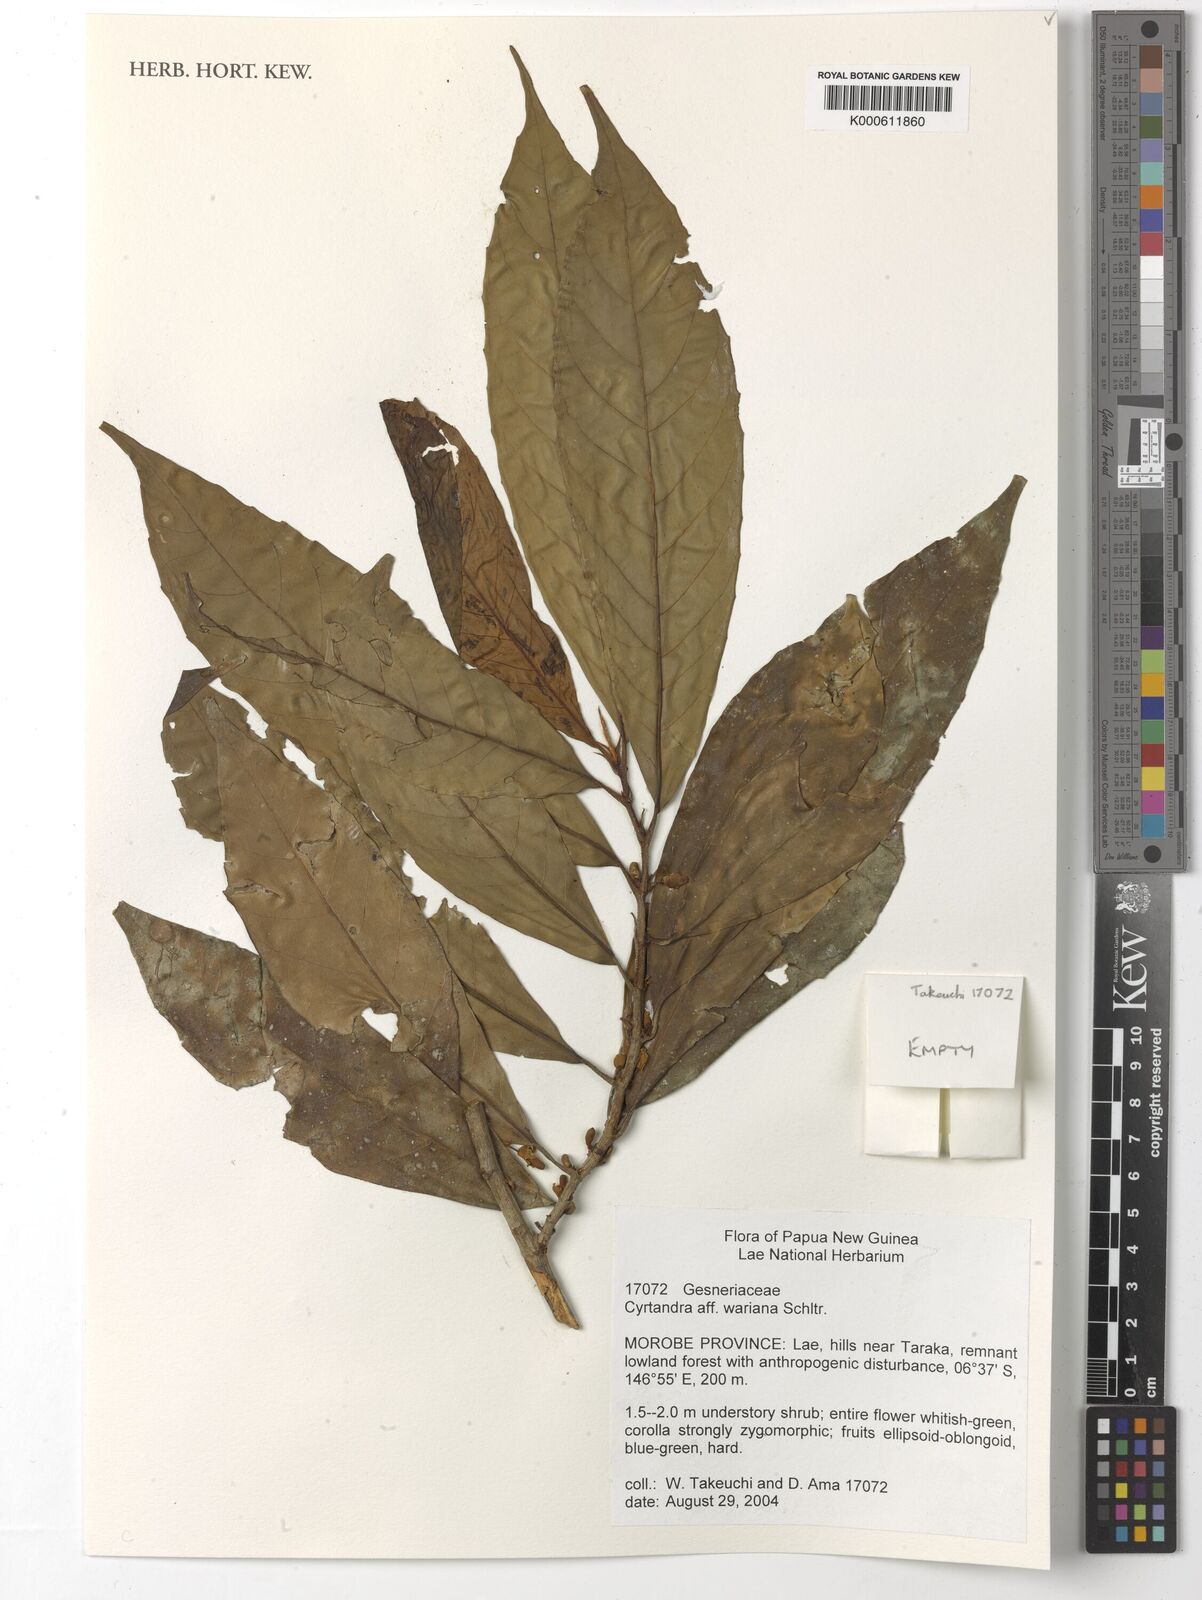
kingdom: Plantae
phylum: Tracheophyta
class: Magnoliopsida
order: Lamiales
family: Gesneriaceae
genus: Cyrtandra
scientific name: Cyrtandra wariana
